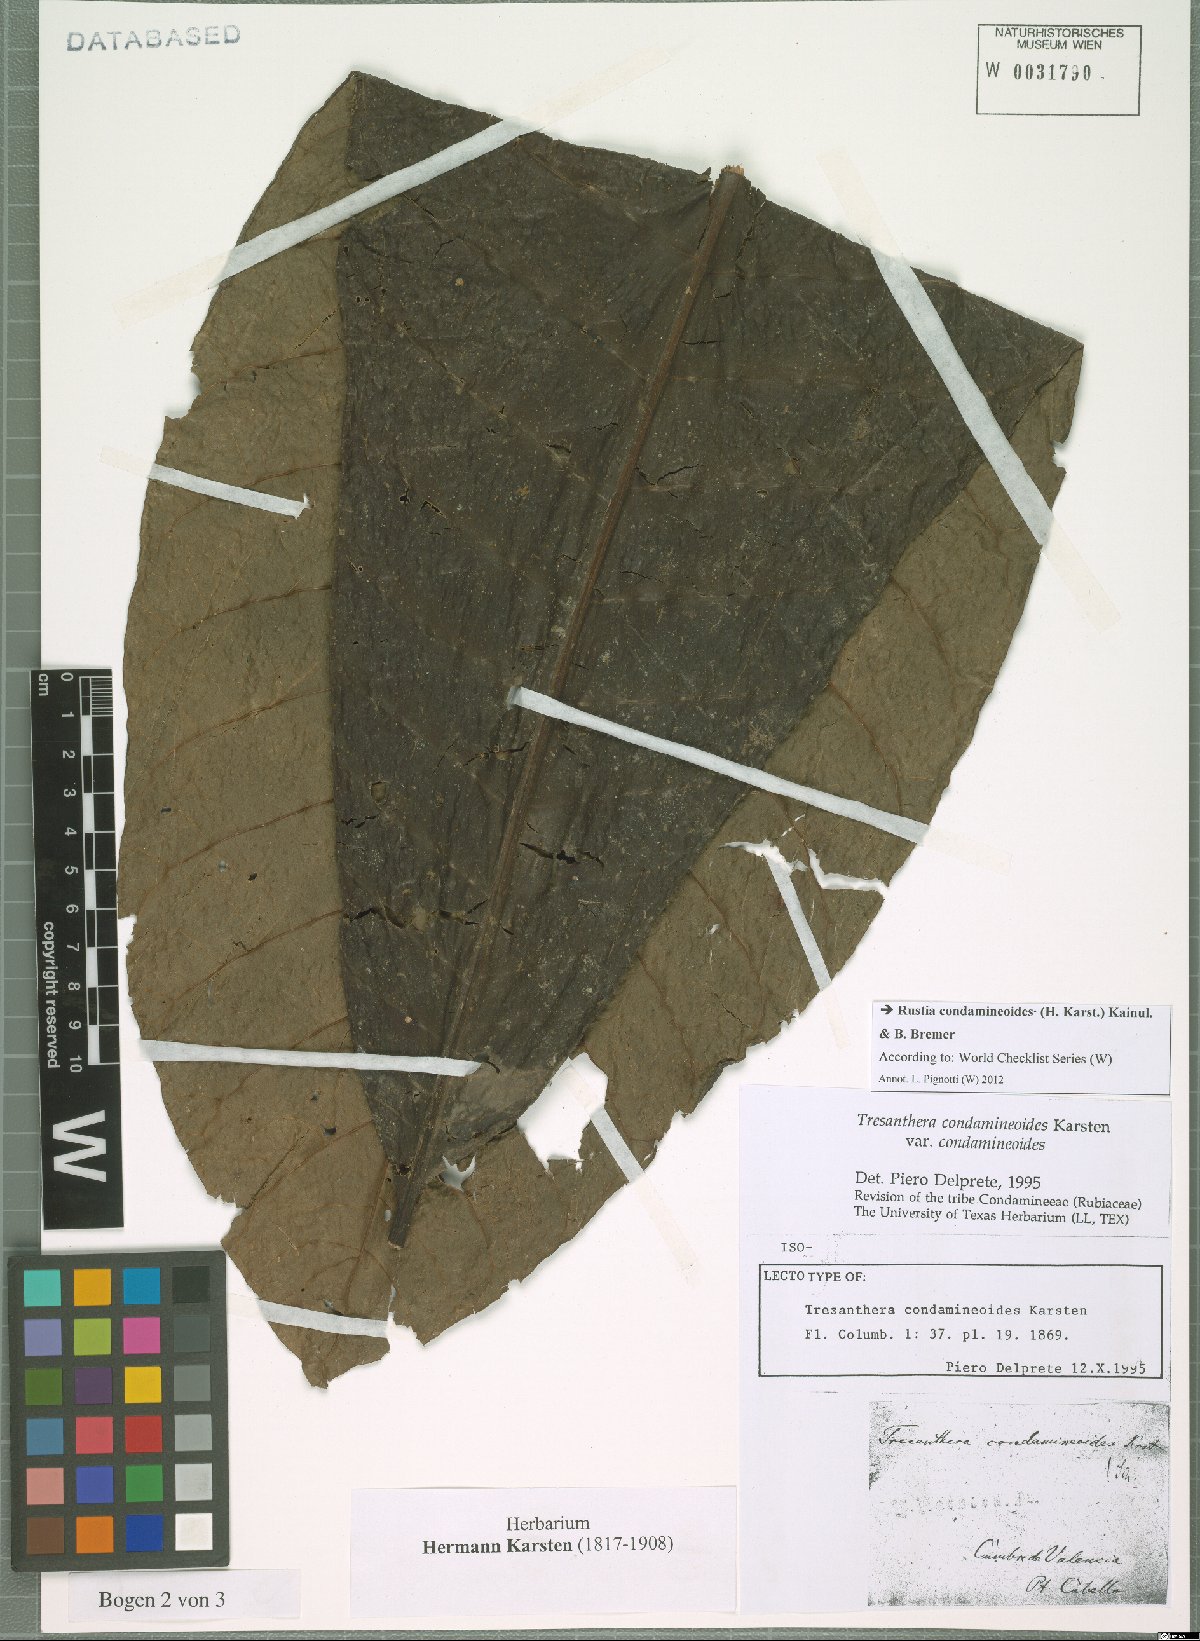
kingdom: Plantae
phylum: Tracheophyta
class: Magnoliopsida
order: Gentianales
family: Rubiaceae
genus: Rustia
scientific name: Rustia condamineoides
